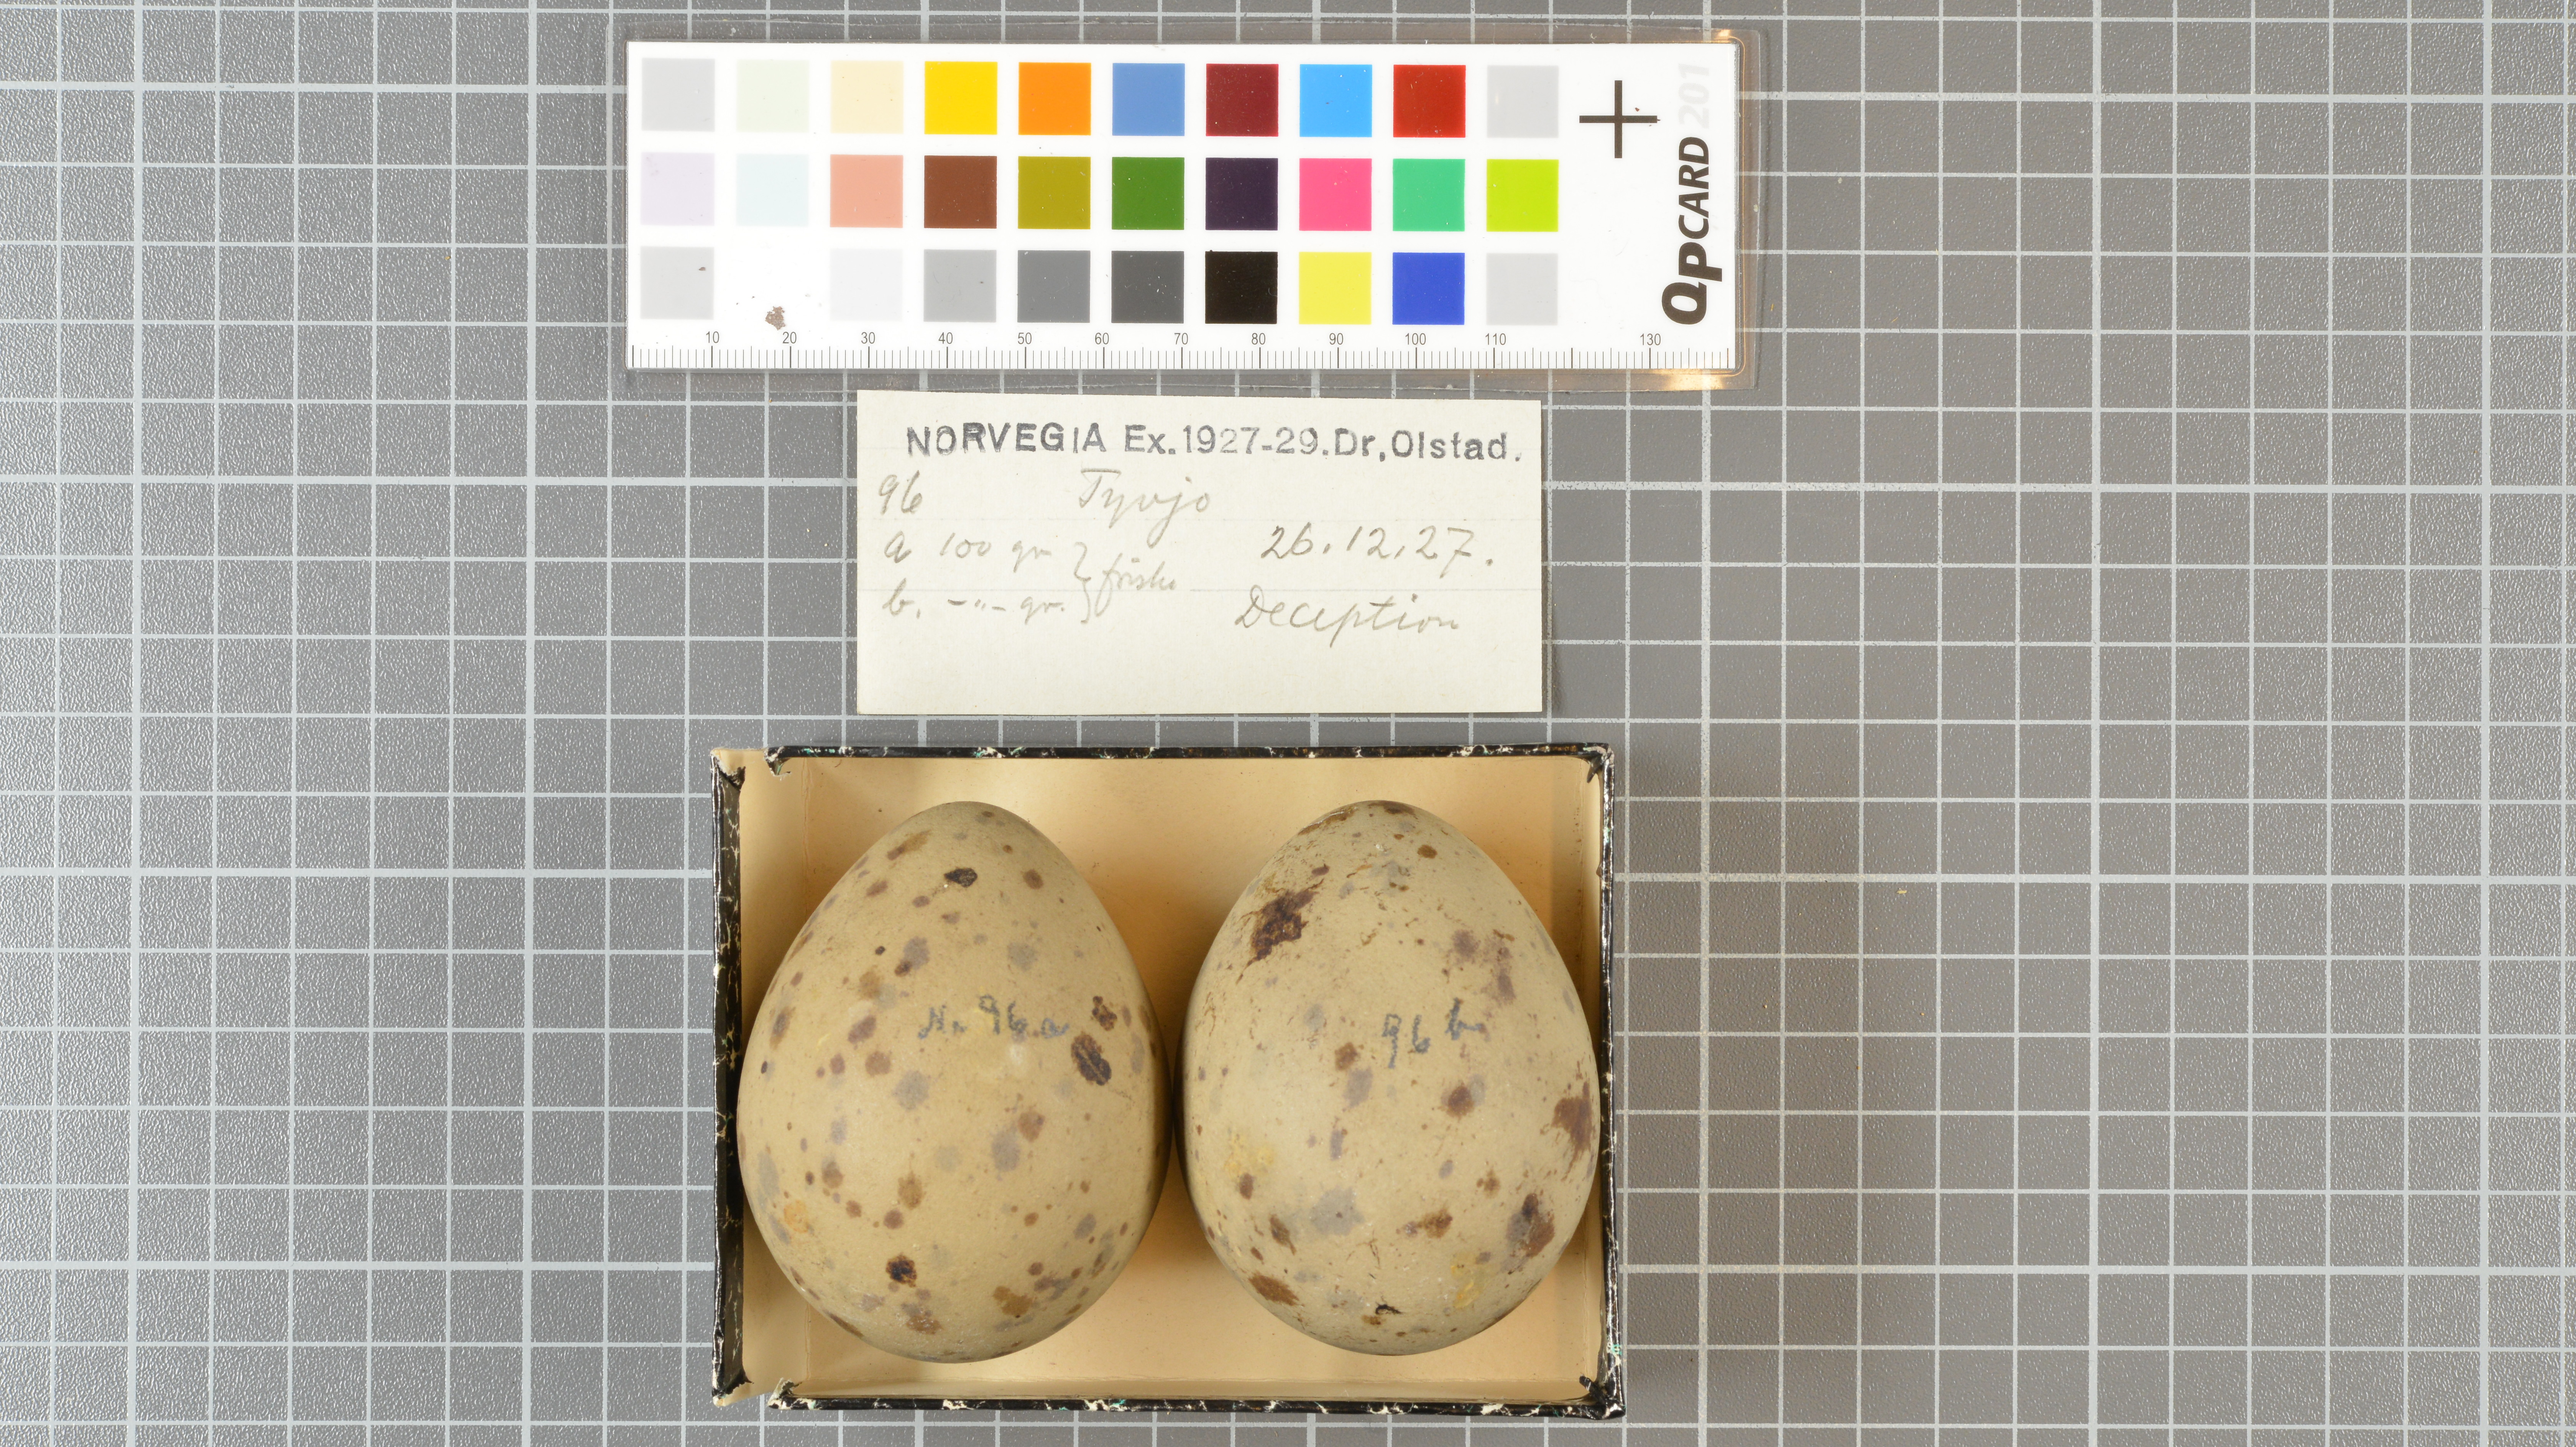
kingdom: Animalia
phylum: Chordata
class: Aves
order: Charadriiformes
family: Stercorariidae
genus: Stercorarius
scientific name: Stercorarius
